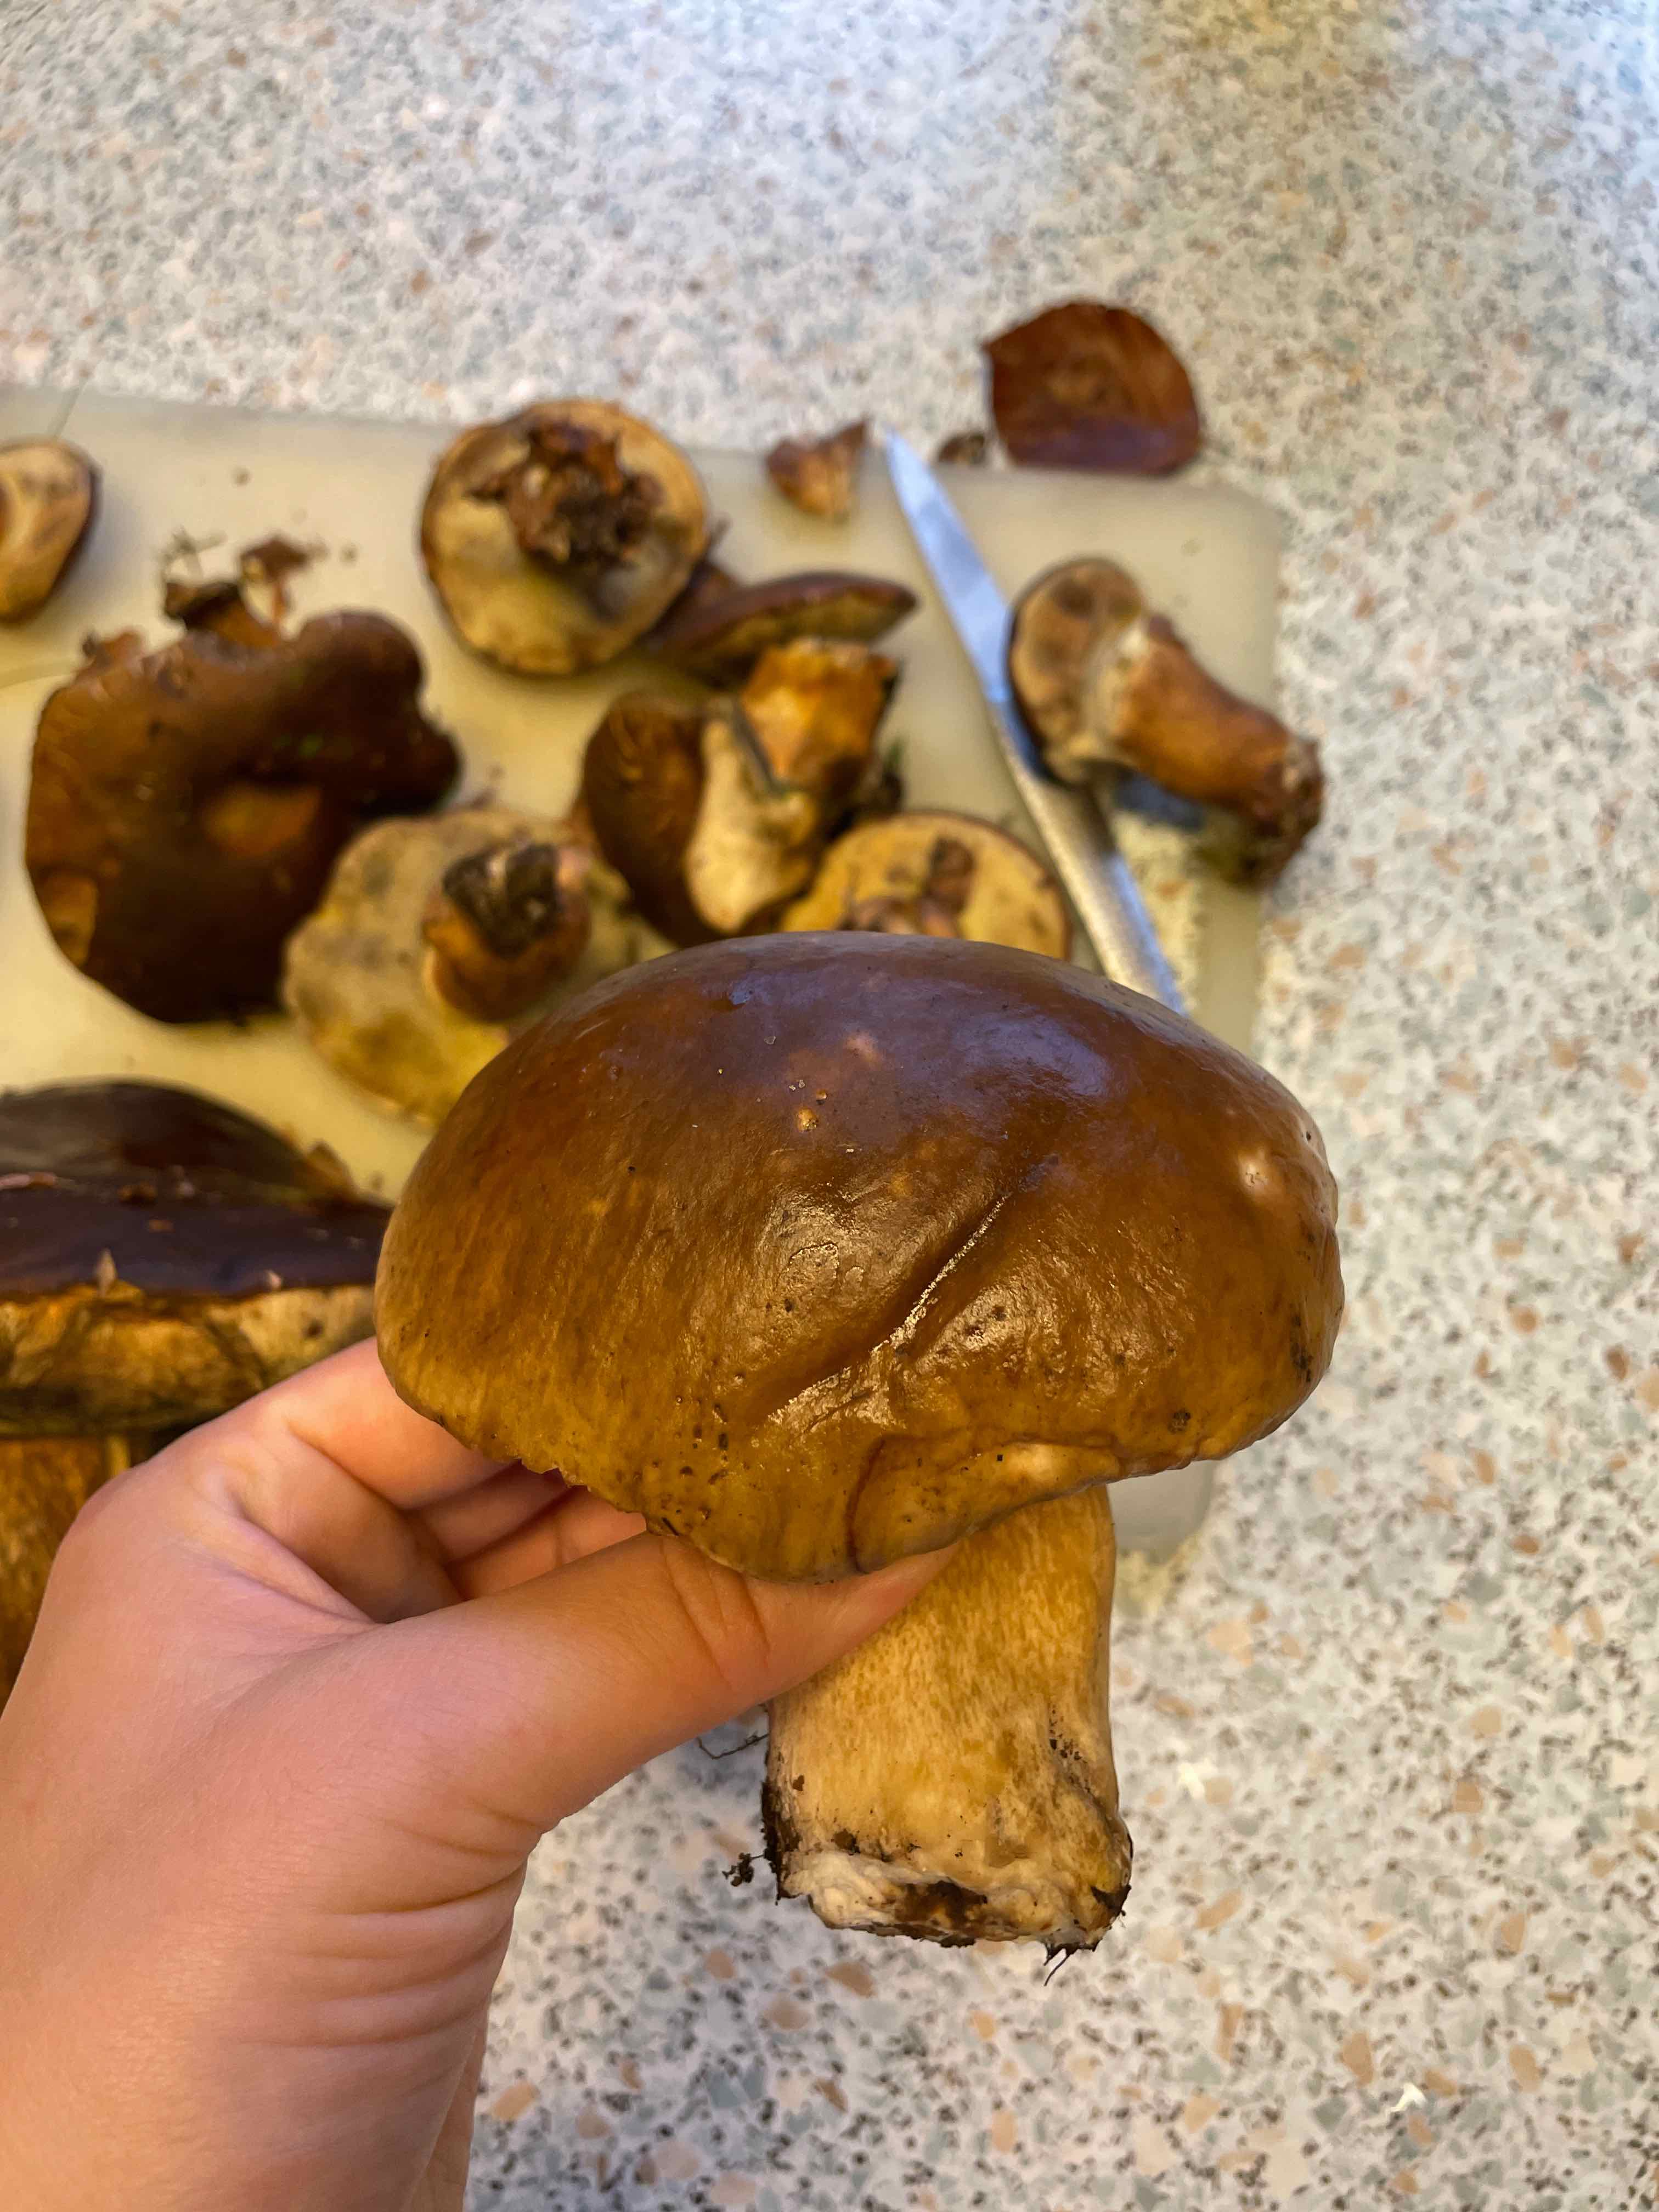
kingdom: Fungi
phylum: Basidiomycota
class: Agaricomycetes
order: Boletales
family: Boletaceae
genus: Boletus
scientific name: Boletus edulis
